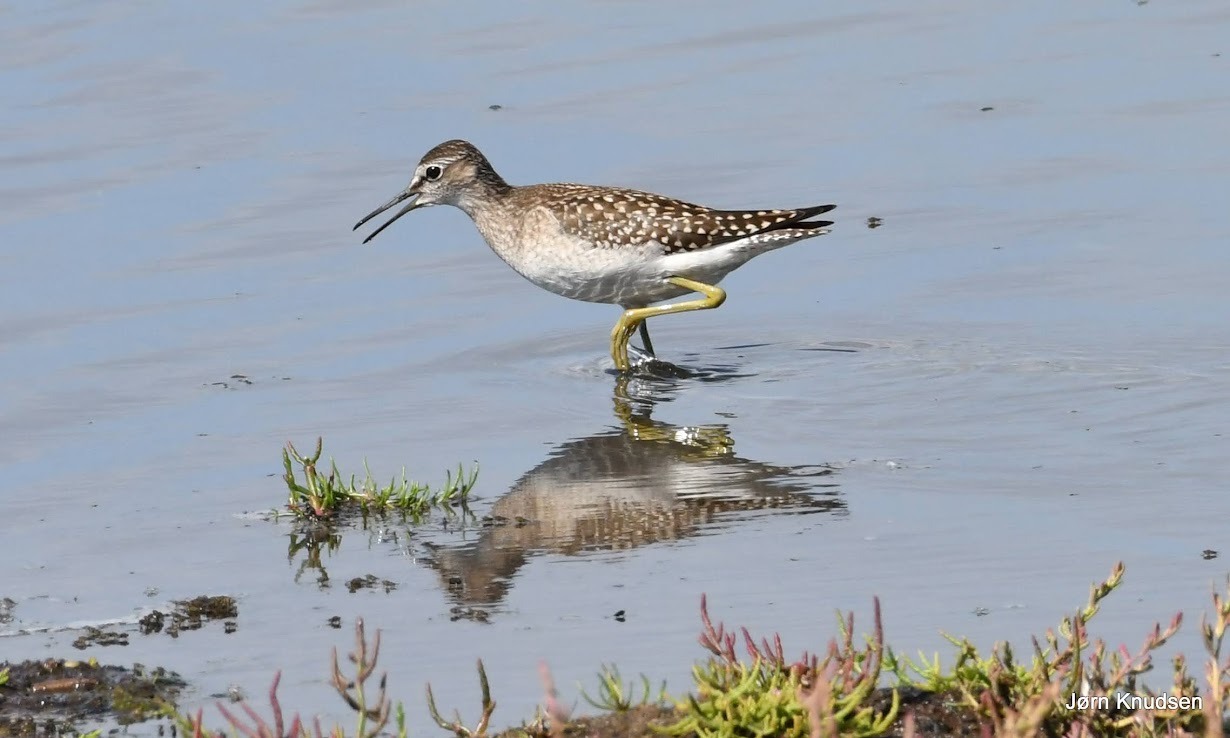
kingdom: Animalia
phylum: Chordata
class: Aves
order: Charadriiformes
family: Scolopacidae
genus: Tringa
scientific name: Tringa glareola
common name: Tinksmed
